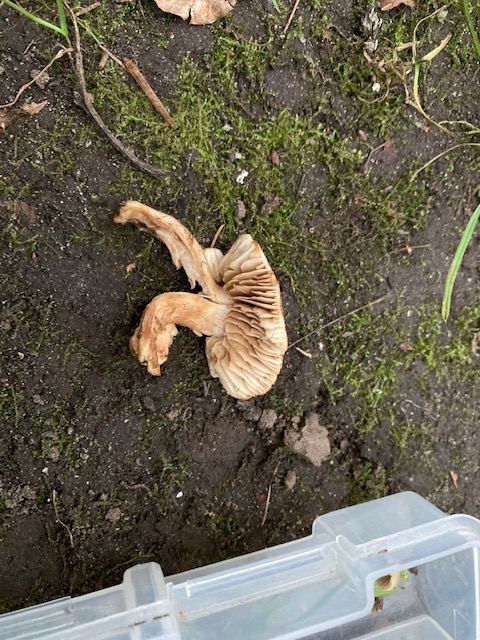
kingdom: Fungi
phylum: Basidiomycota
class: Agaricomycetes
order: Agaricales
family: Hymenogastraceae
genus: Hebeloma
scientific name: Hebeloma sacchariolens
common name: sødtduftende tåreblad
